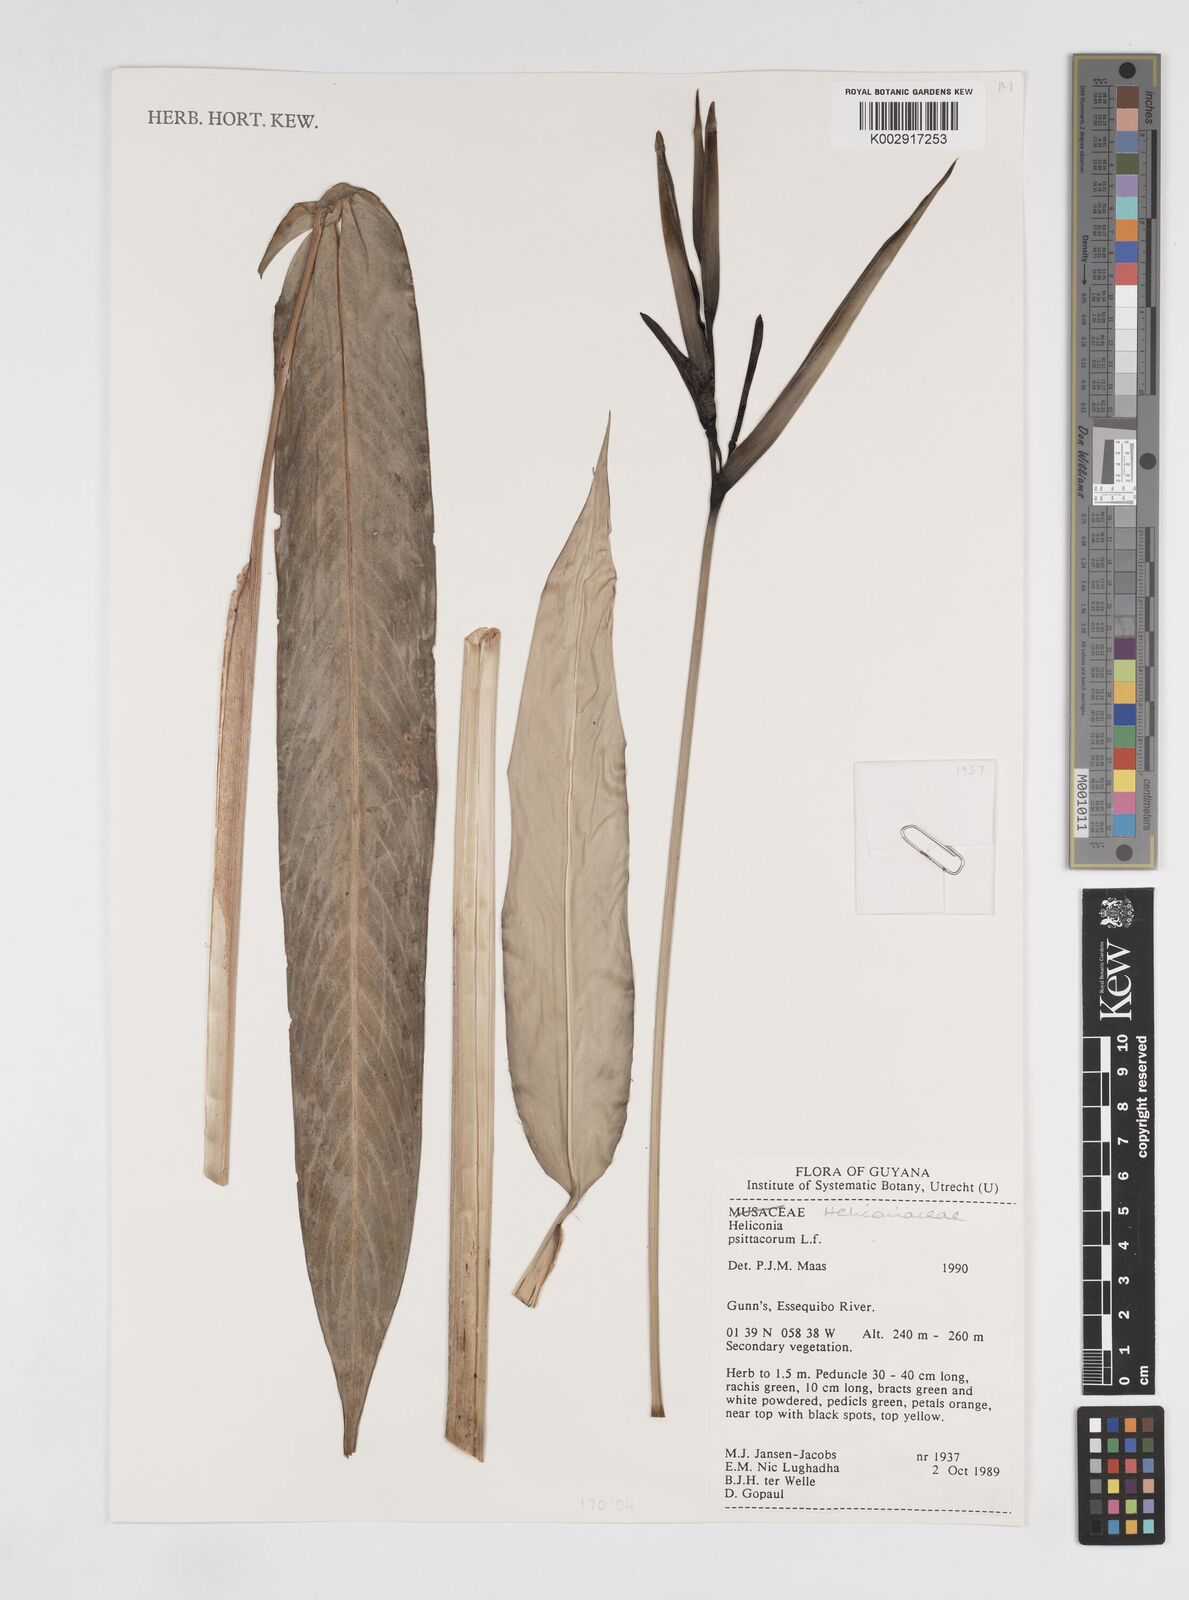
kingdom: Plantae
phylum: Tracheophyta
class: Liliopsida
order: Zingiberales
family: Heliconiaceae
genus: Heliconia
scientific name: Heliconia psittacorum
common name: Parrot's-flower
